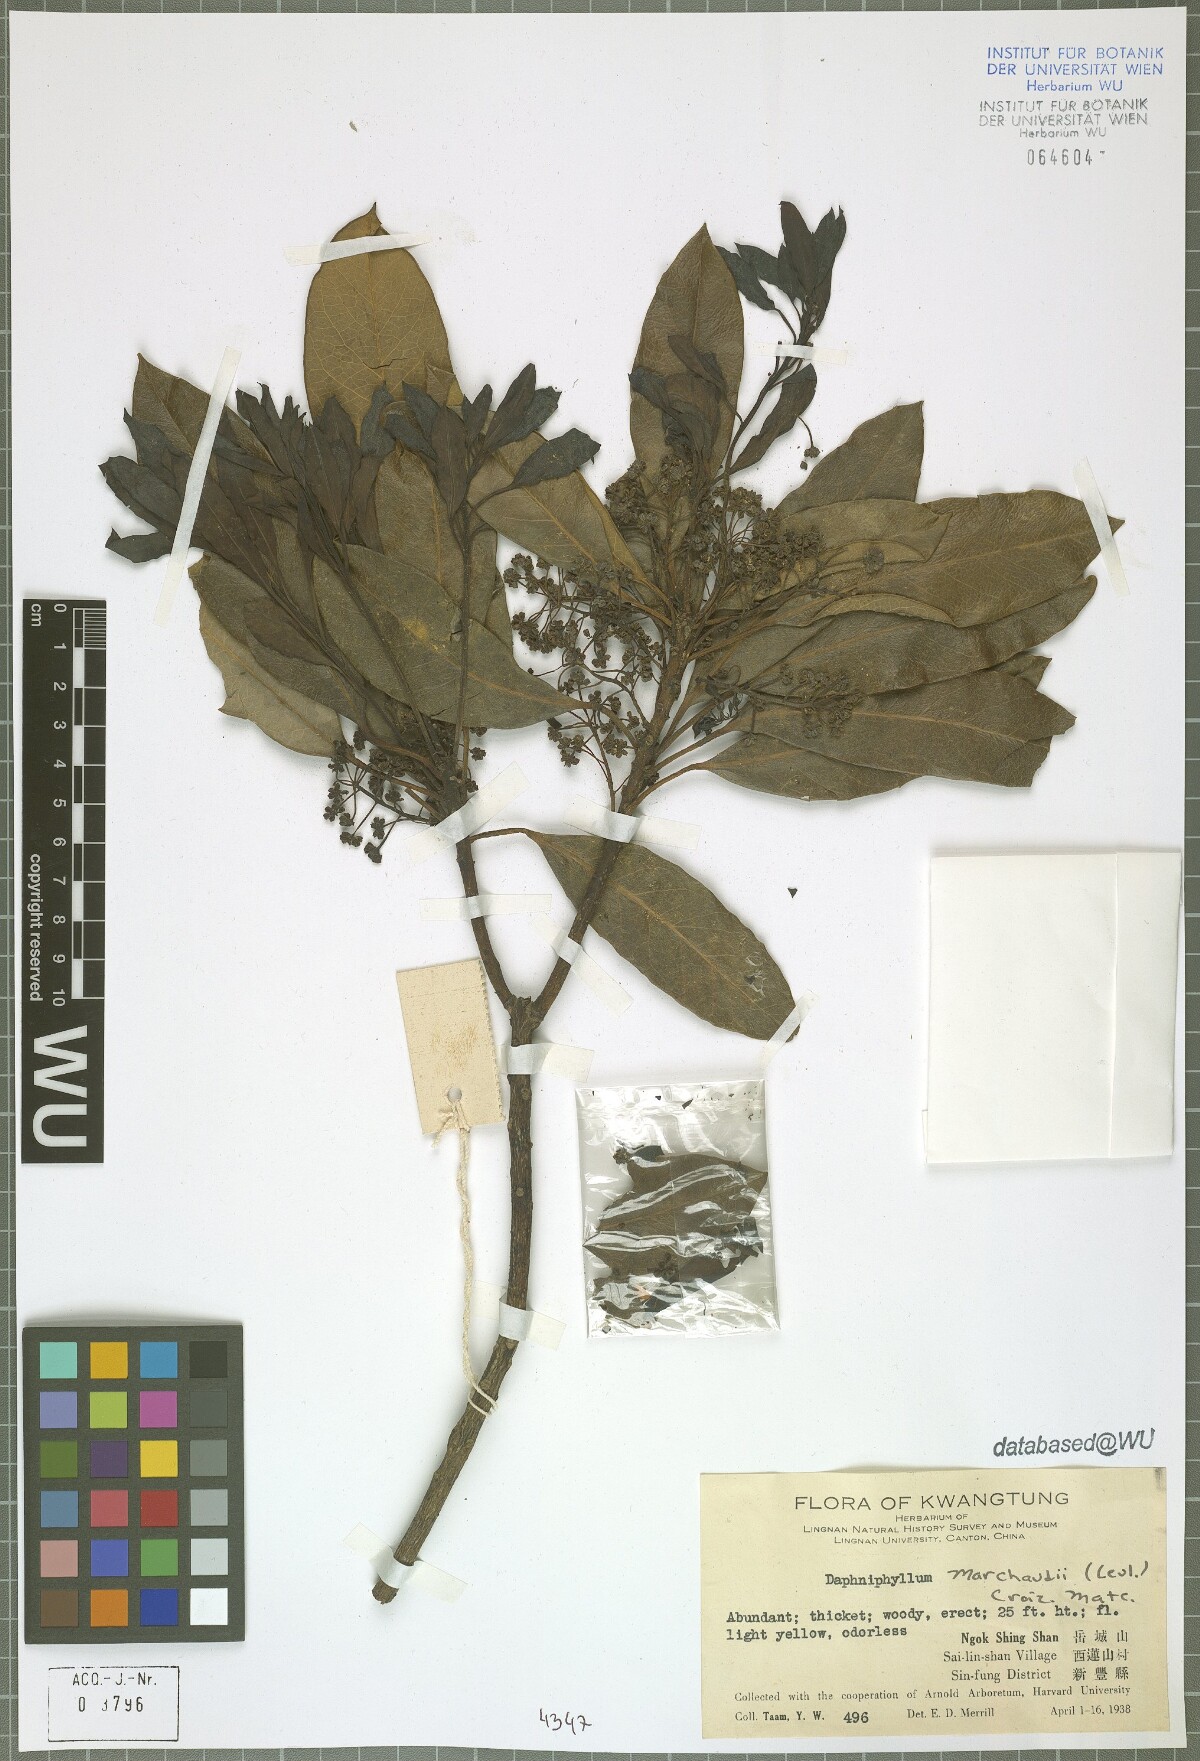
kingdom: Plantae
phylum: Tracheophyta
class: Magnoliopsida
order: Saxifragales
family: Daphniphyllaceae
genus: Daphniphyllum
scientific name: Daphniphyllum pentandrum
